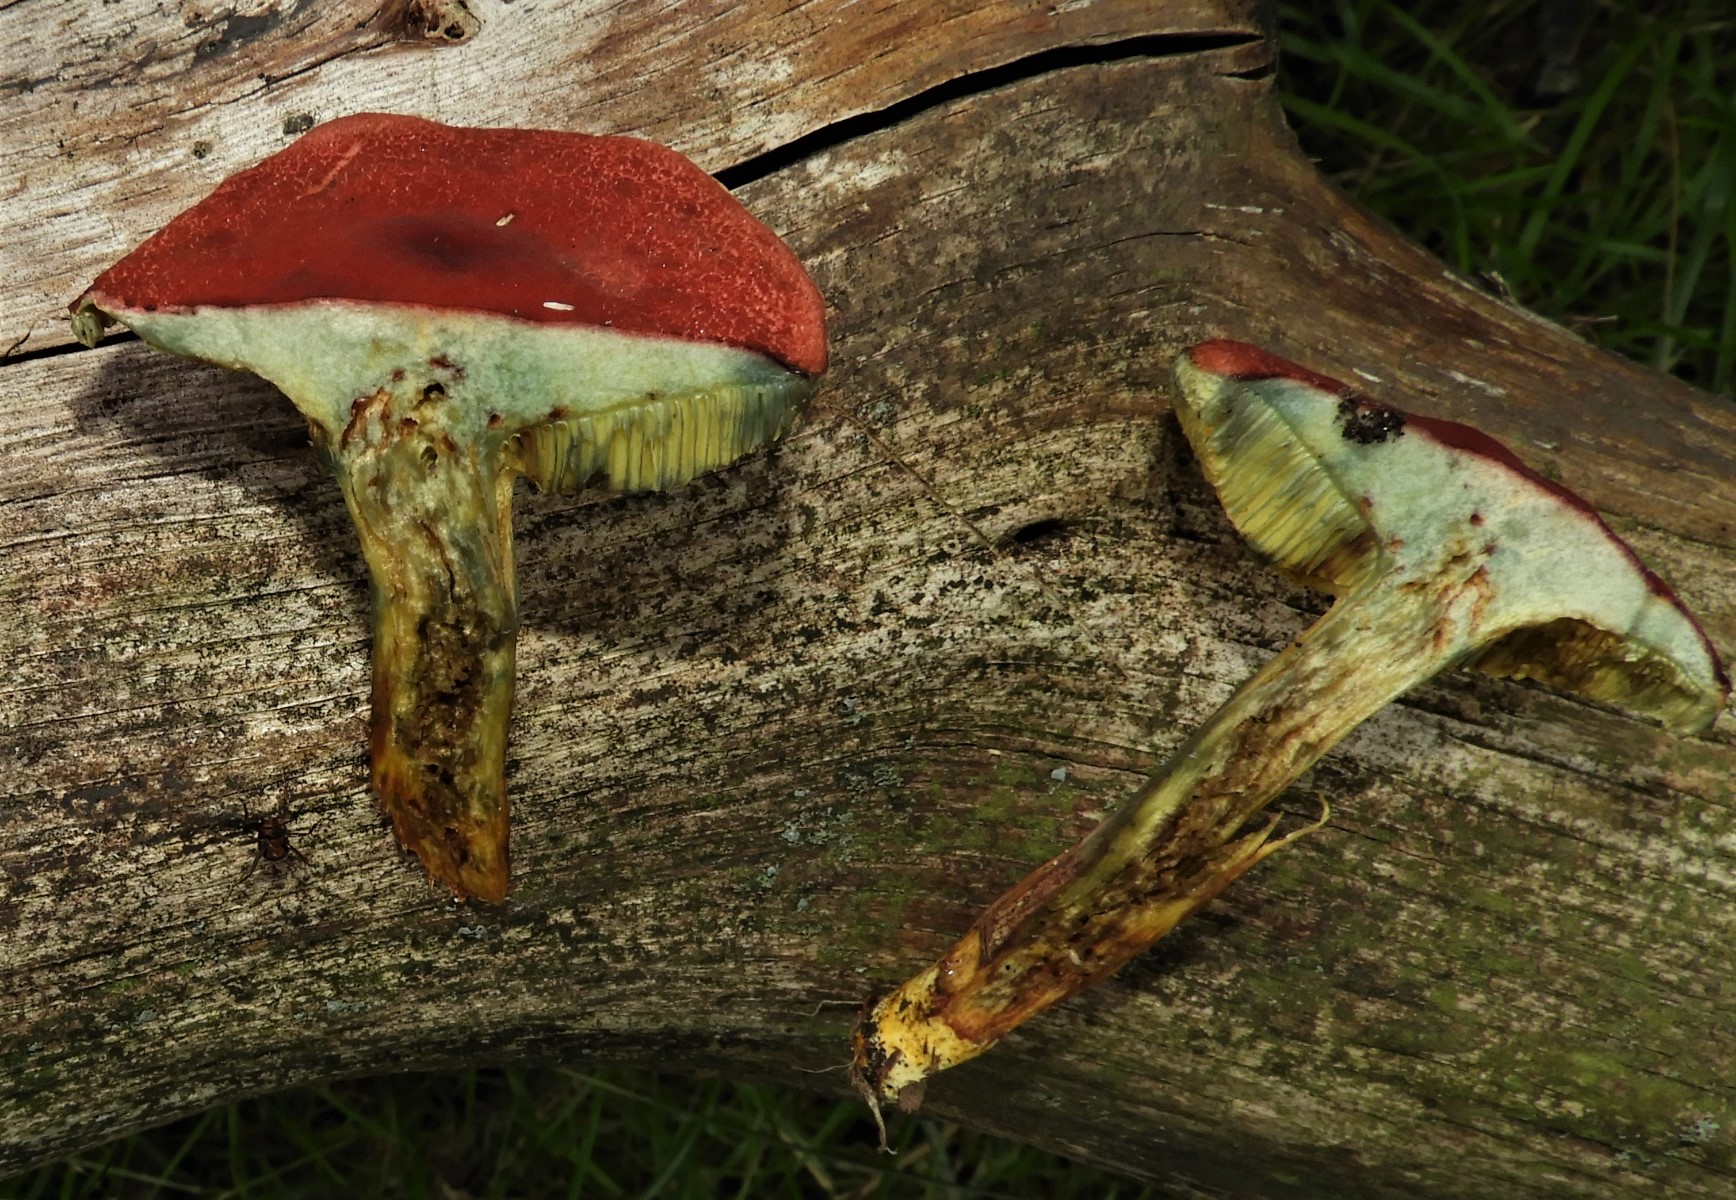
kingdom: Fungi
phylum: Basidiomycota
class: Agaricomycetes
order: Boletales
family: Boletaceae
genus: Hortiboletus
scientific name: Hortiboletus rubellus
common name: blodrød rørhat
